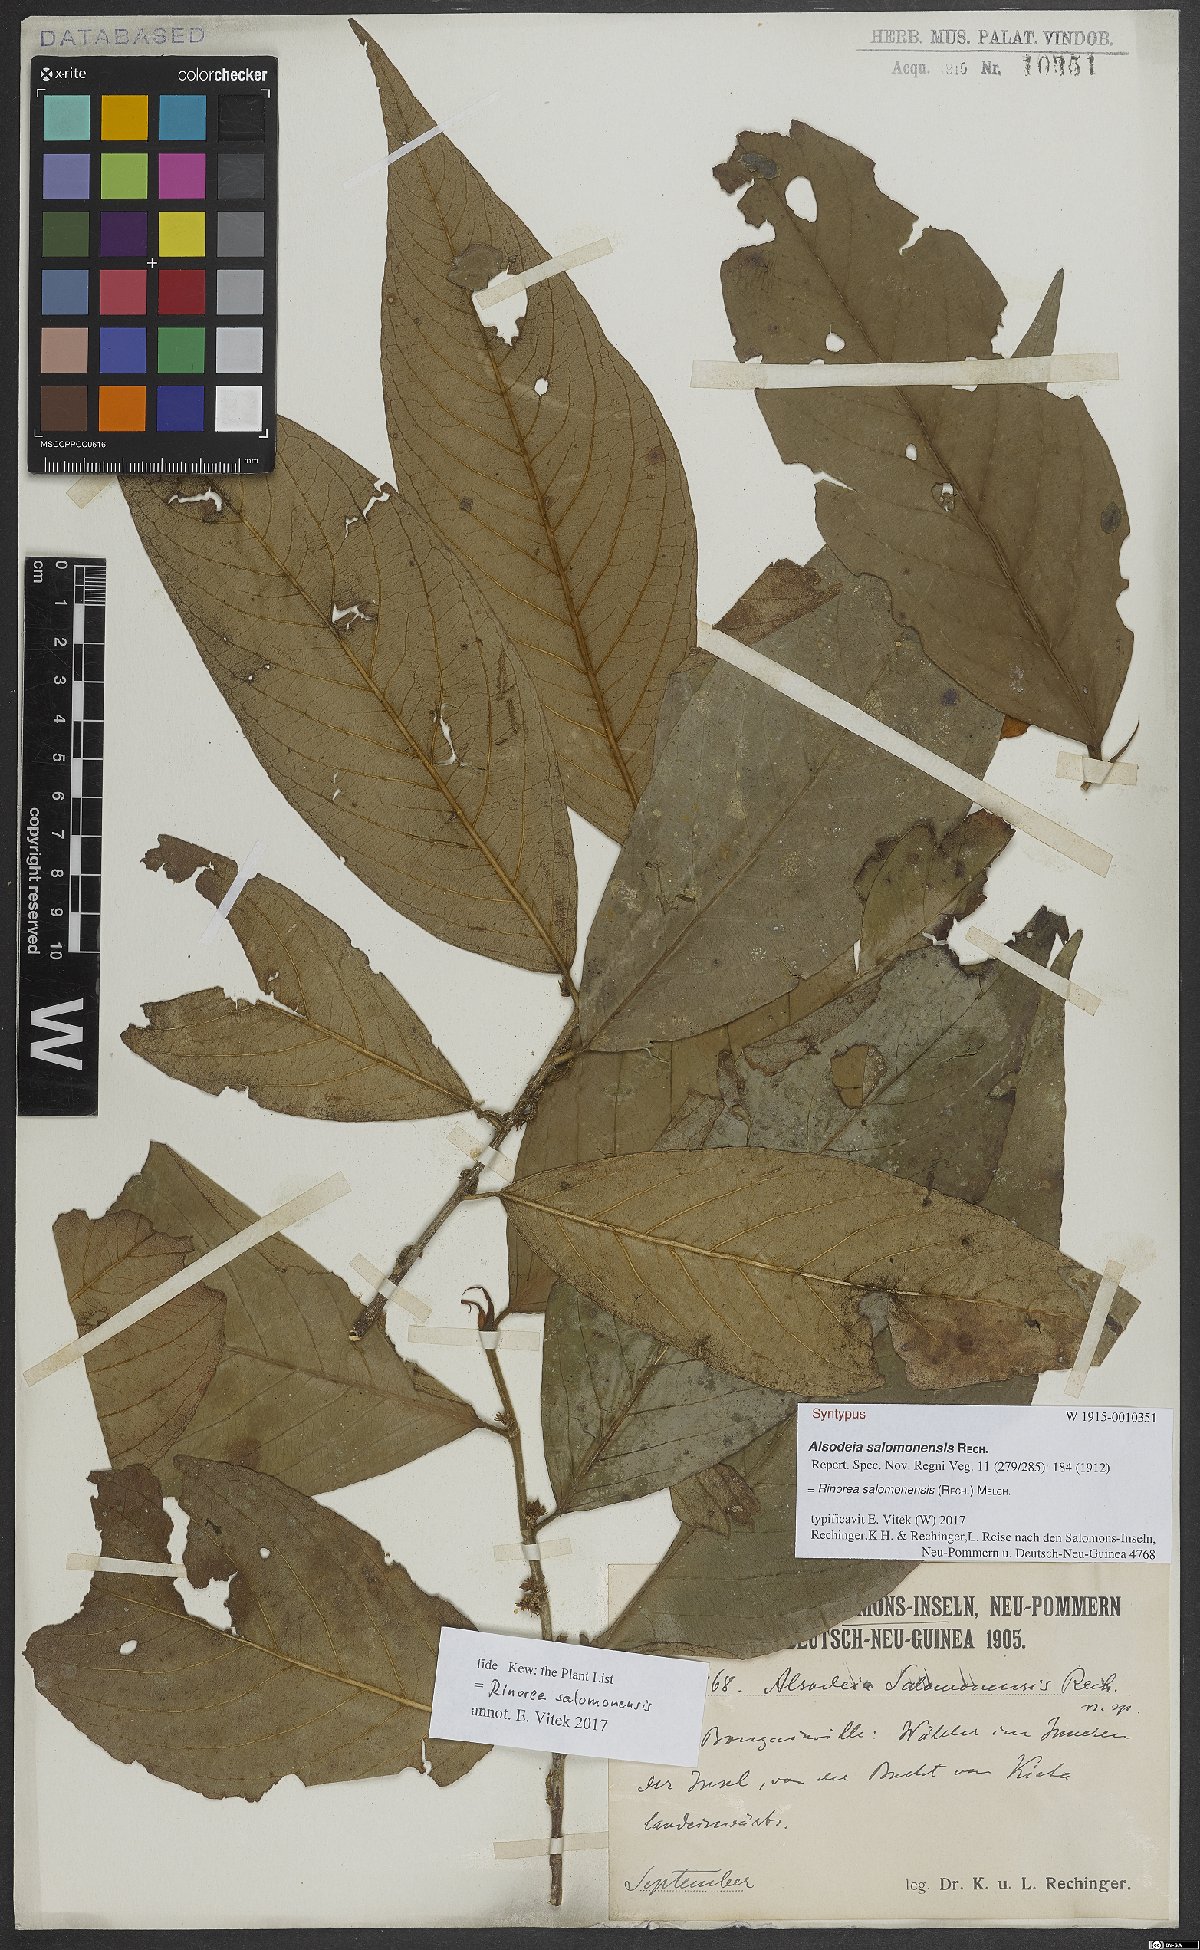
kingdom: Plantae
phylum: Tracheophyta
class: Magnoliopsida
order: Malpighiales
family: Violaceae
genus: Rinorea
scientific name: Rinorea bengalensis
